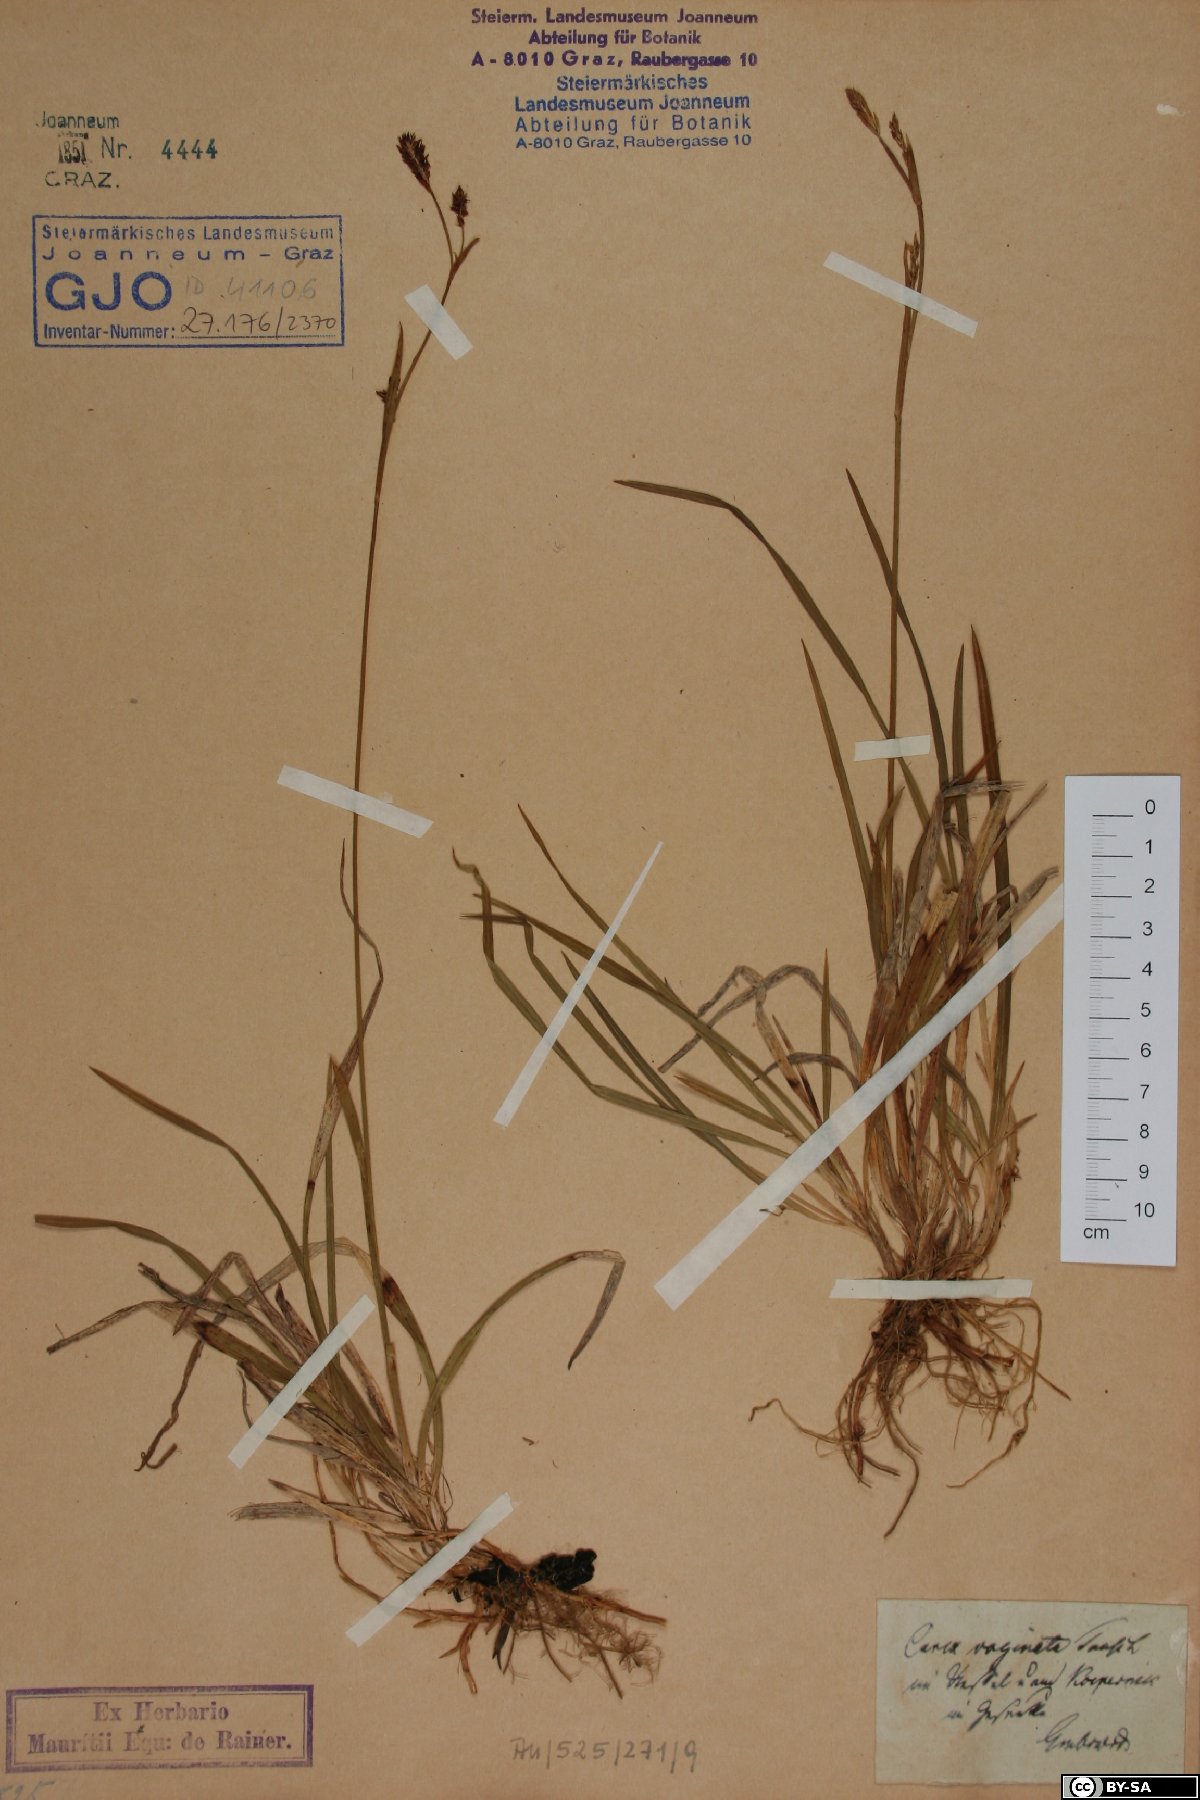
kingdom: Plantae
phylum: Tracheophyta
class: Liliopsida
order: Poales
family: Cyperaceae
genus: Carex
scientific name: Carex vaginata
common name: Sheathed sedge
